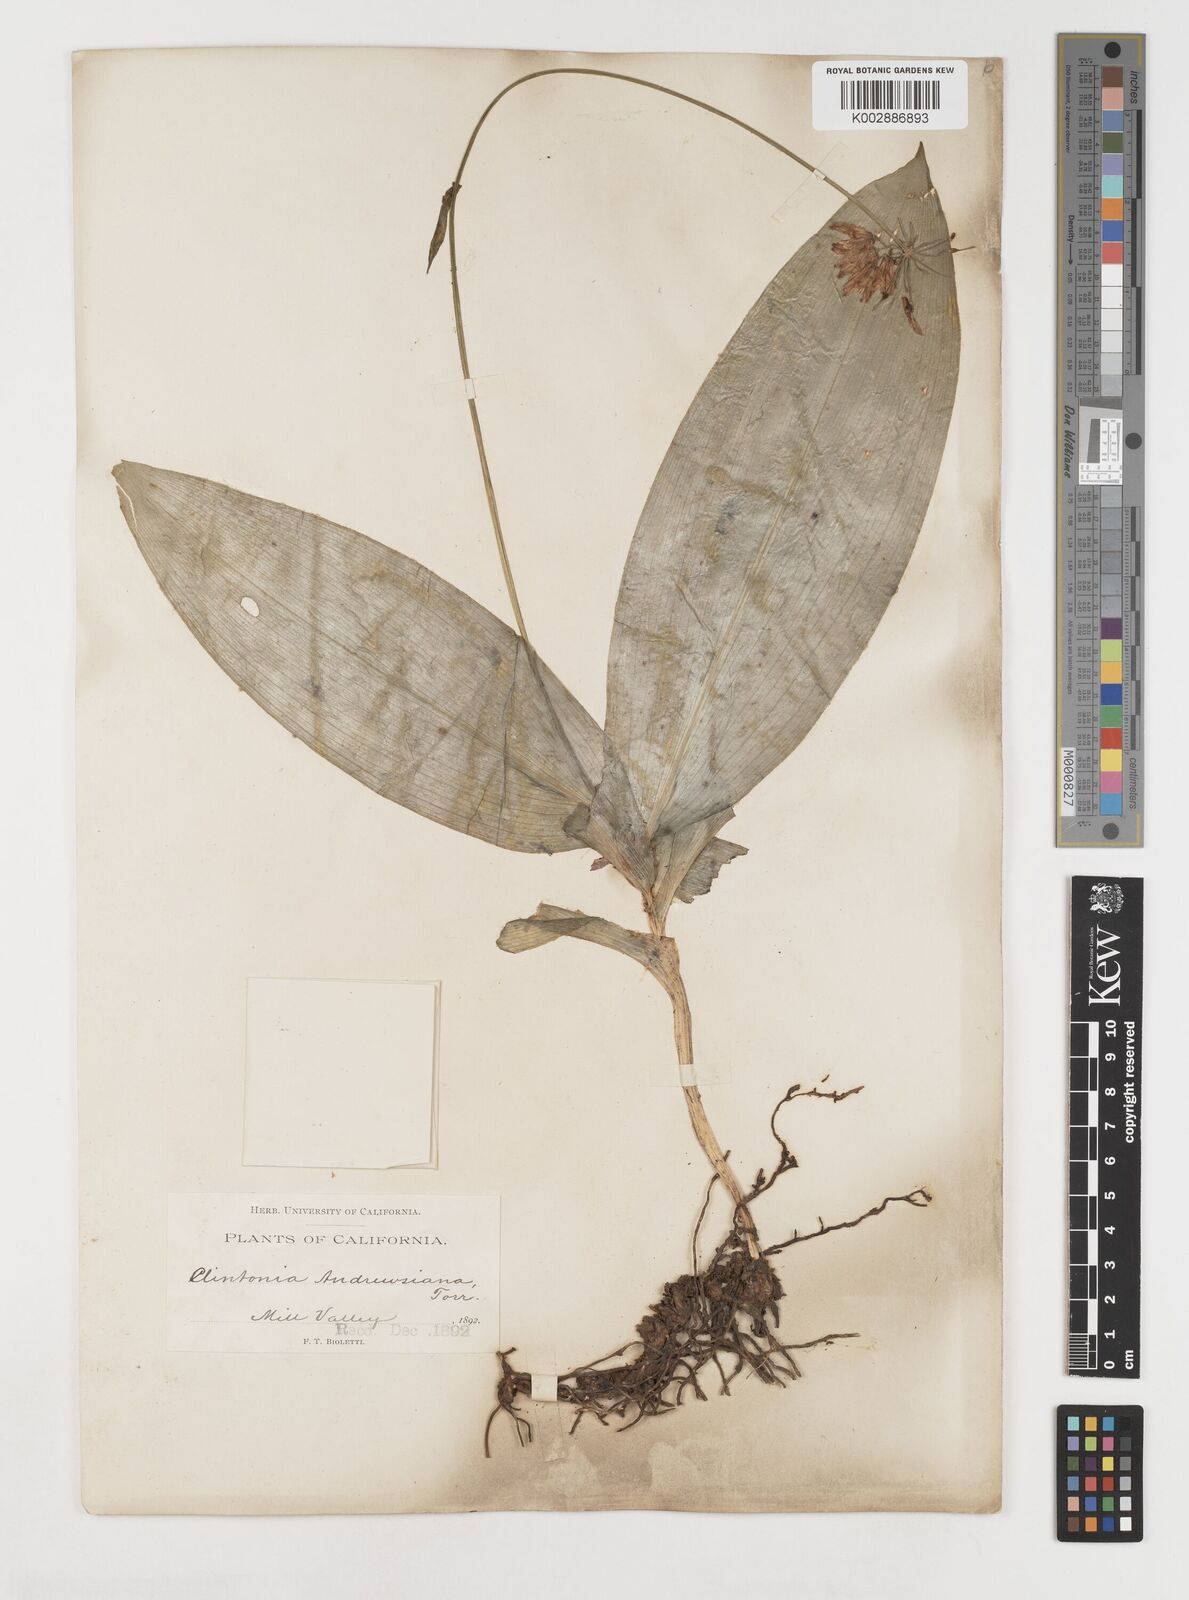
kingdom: Plantae
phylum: Tracheophyta
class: Liliopsida
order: Liliales
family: Liliaceae
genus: Clintonia
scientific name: Clintonia andrewsiana
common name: Red clintonia
